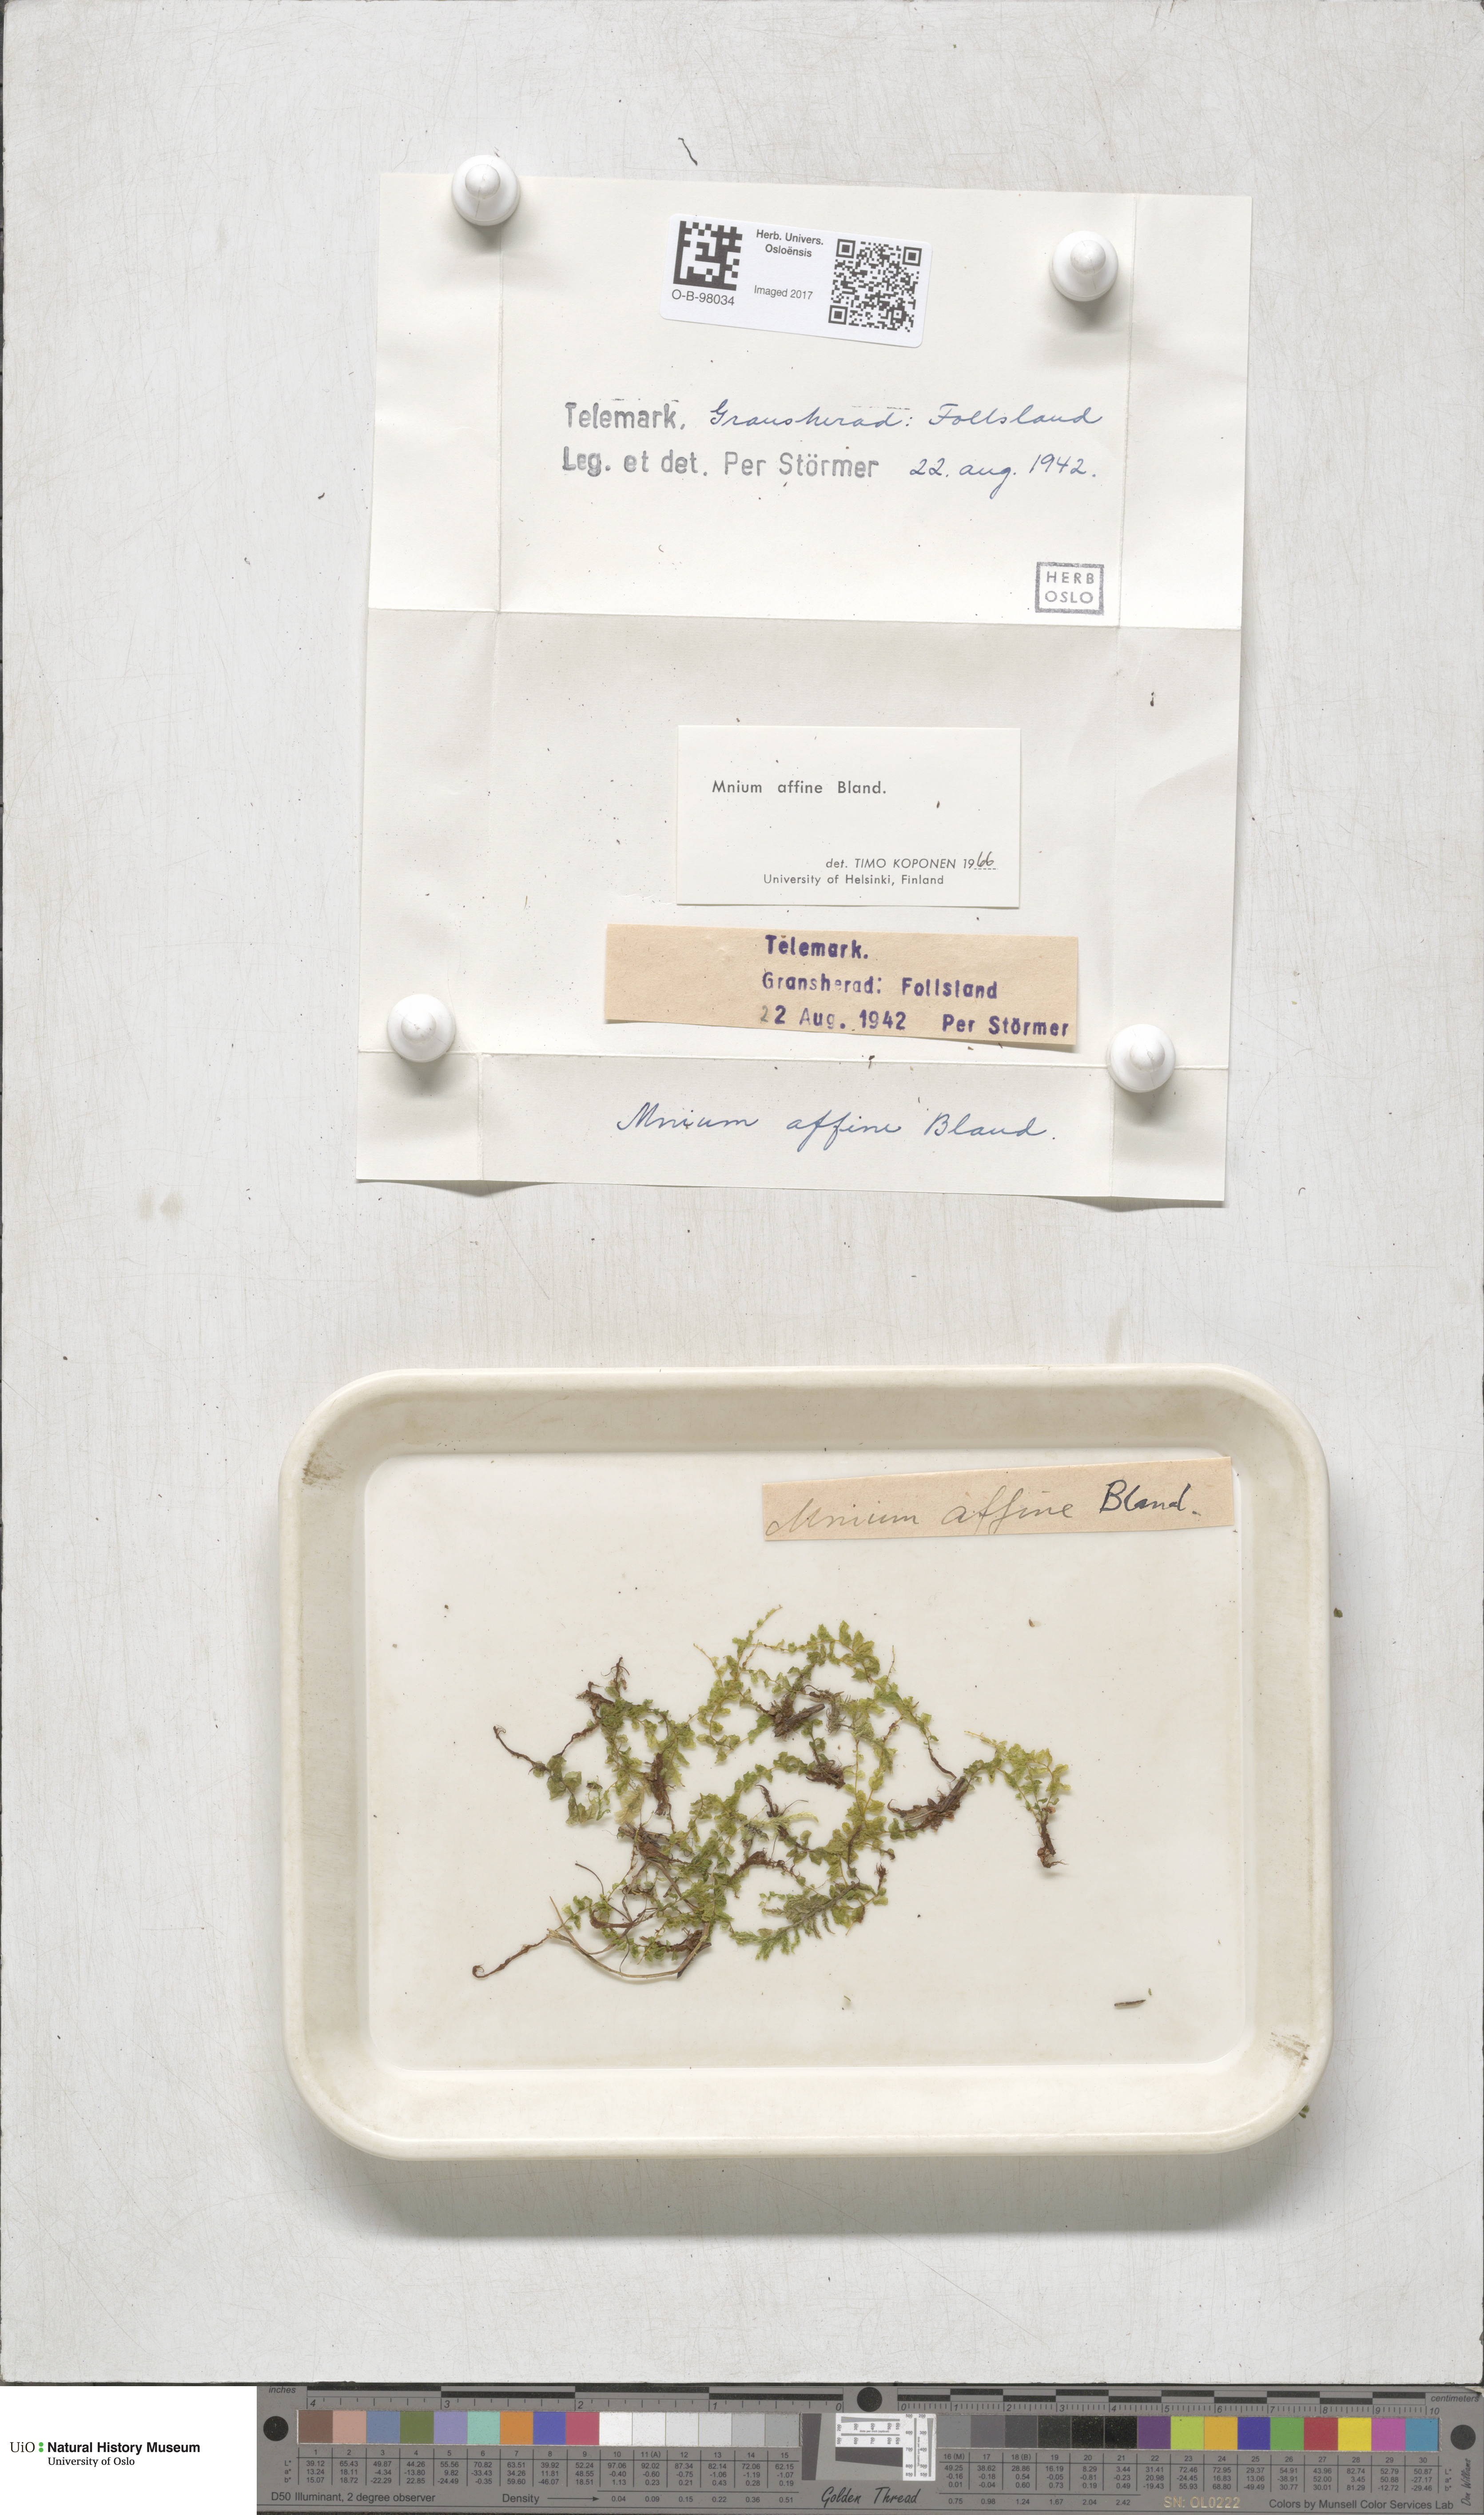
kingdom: Plantae
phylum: Bryophyta
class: Bryopsida
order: Bryales
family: Mniaceae
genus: Plagiomnium
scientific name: Plagiomnium affine
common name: Many-fruited thyme-moss
